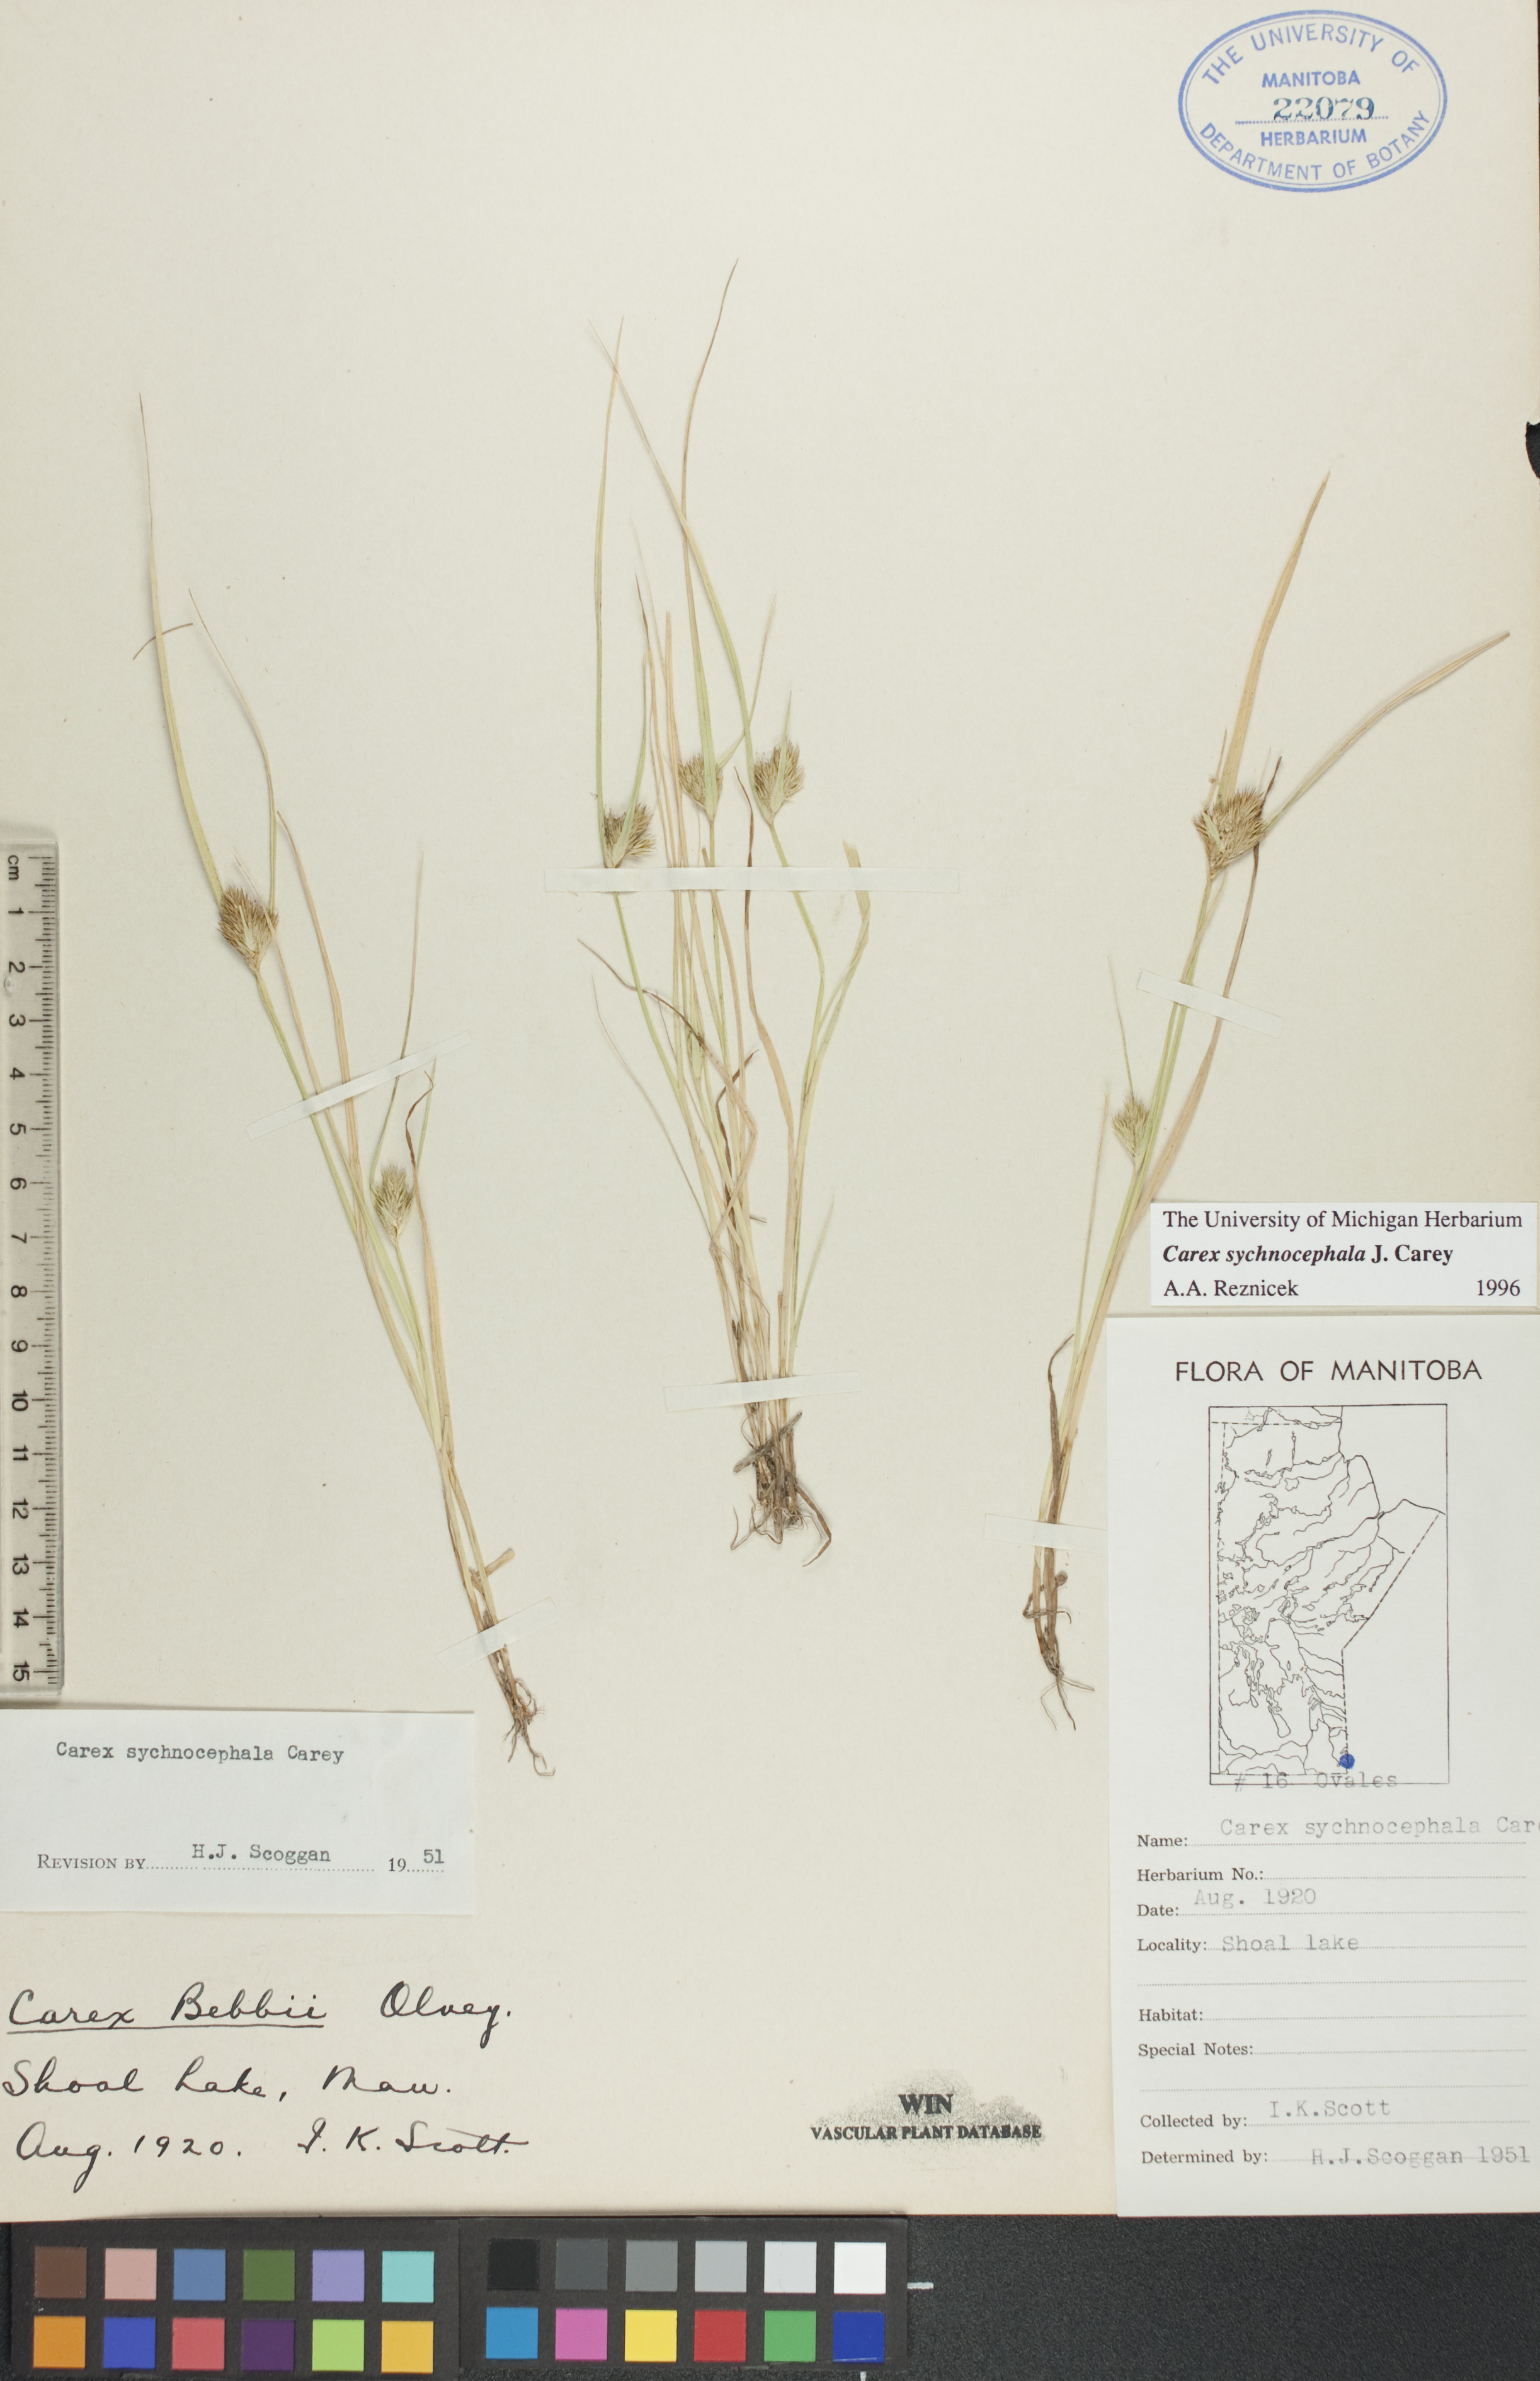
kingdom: Plantae
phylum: Tracheophyta
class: Liliopsida
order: Poales
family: Cyperaceae
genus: Carex
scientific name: Carex sychnocephala
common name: Dense long-beaked sedge
